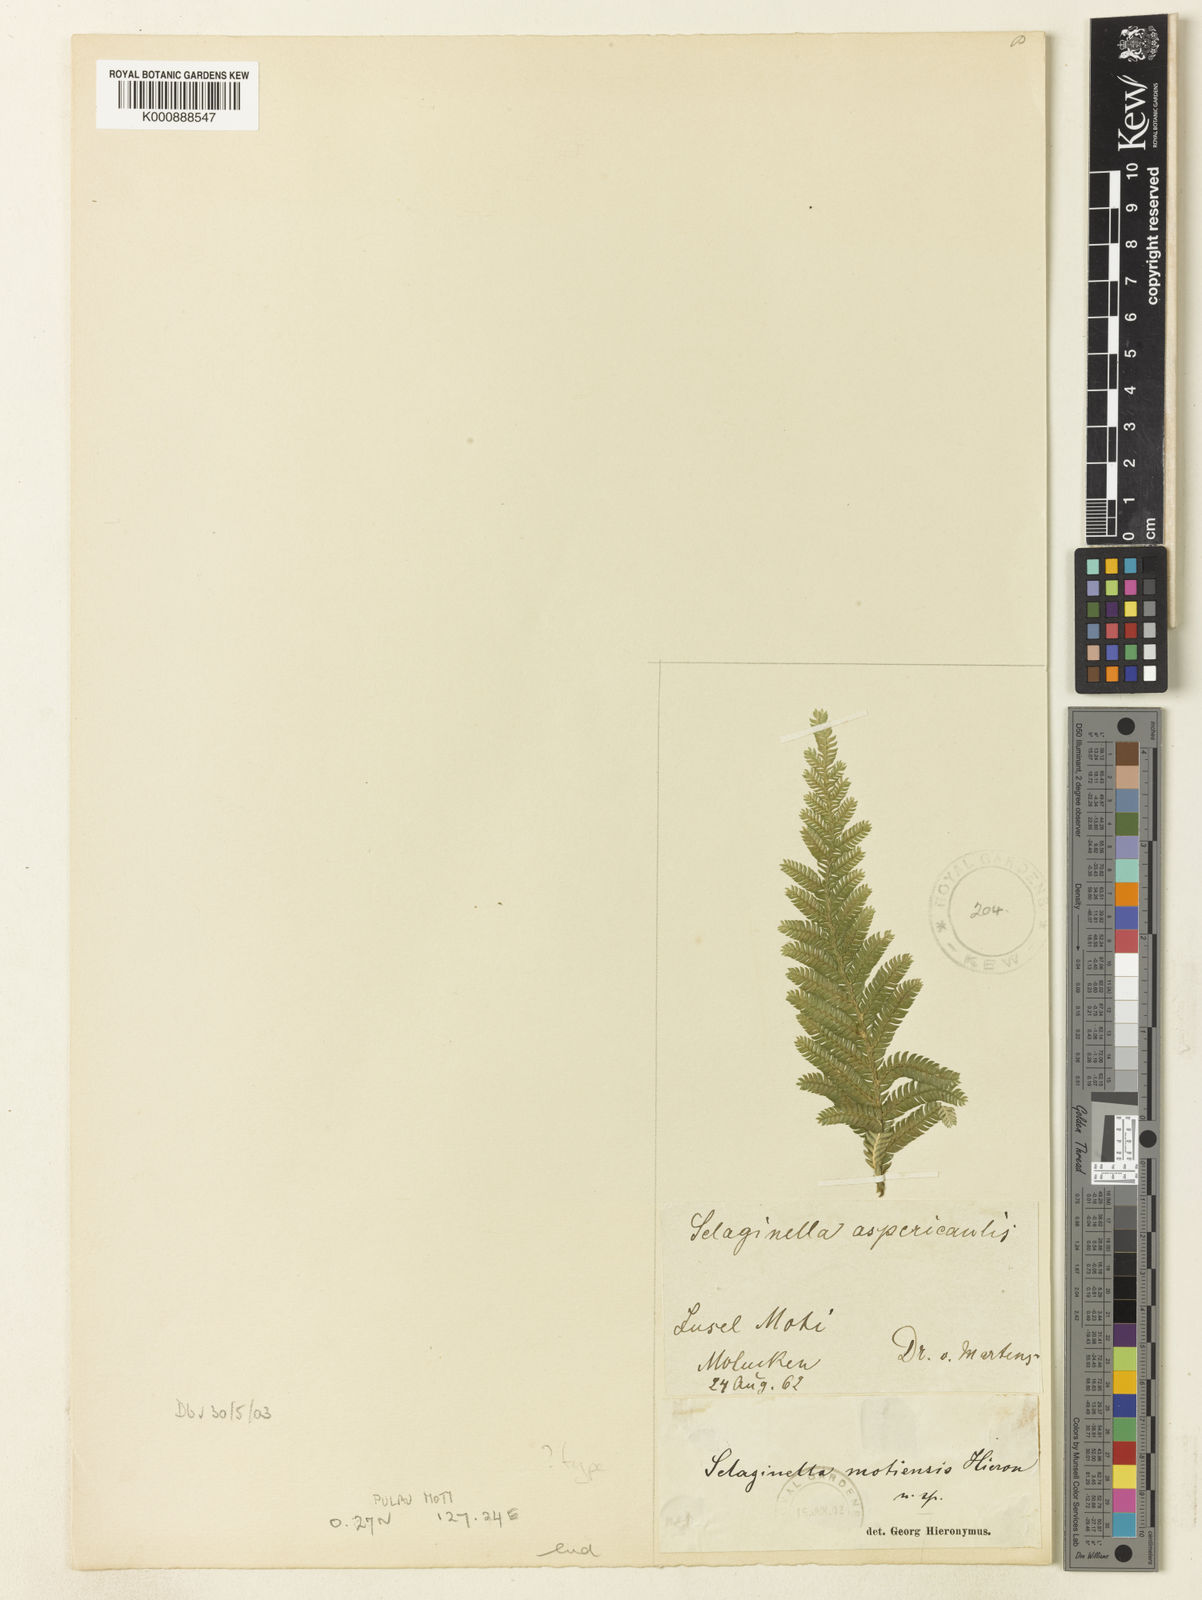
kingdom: Plantae
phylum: Tracheophyta
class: Lycopodiopsida
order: Selaginellales
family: Selaginellaceae
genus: Selaginella
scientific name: Selaginella
